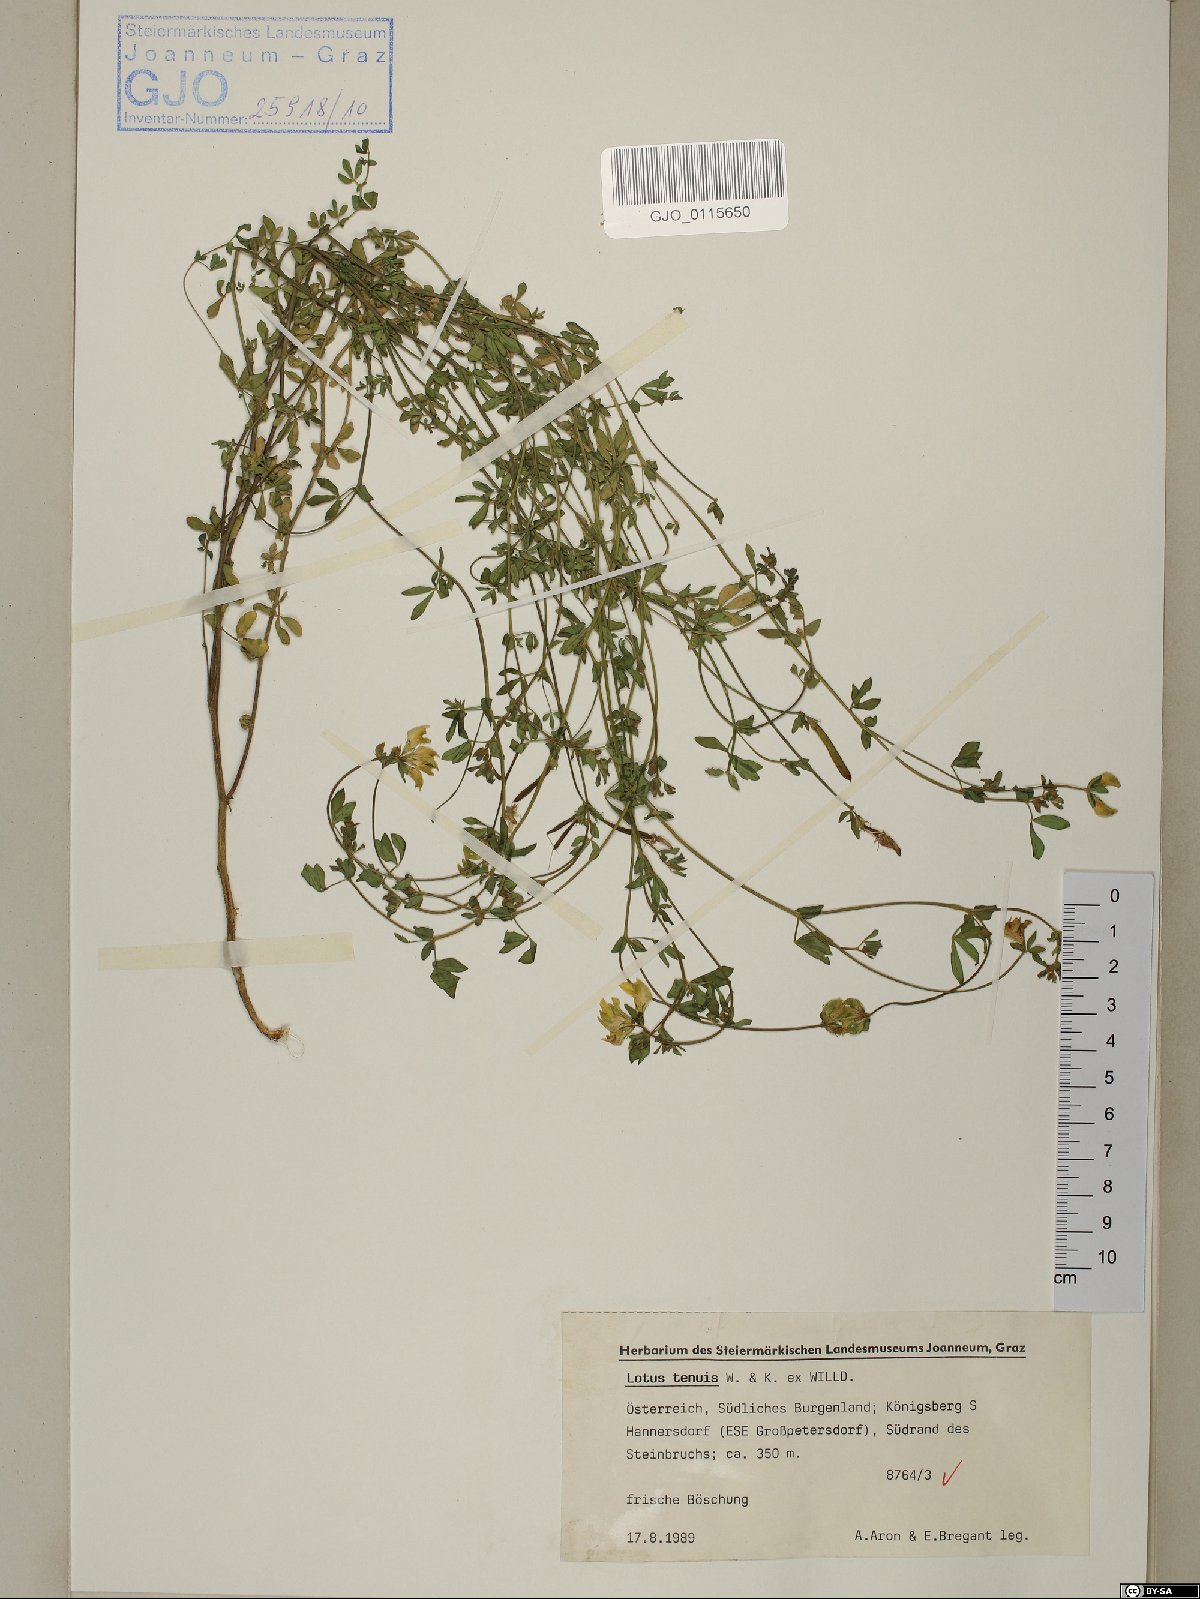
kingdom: Plantae
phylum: Tracheophyta
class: Magnoliopsida
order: Fabales
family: Fabaceae
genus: Lotus
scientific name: Lotus tenuis
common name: Narrow-leaved bird's-foot-trefoil
